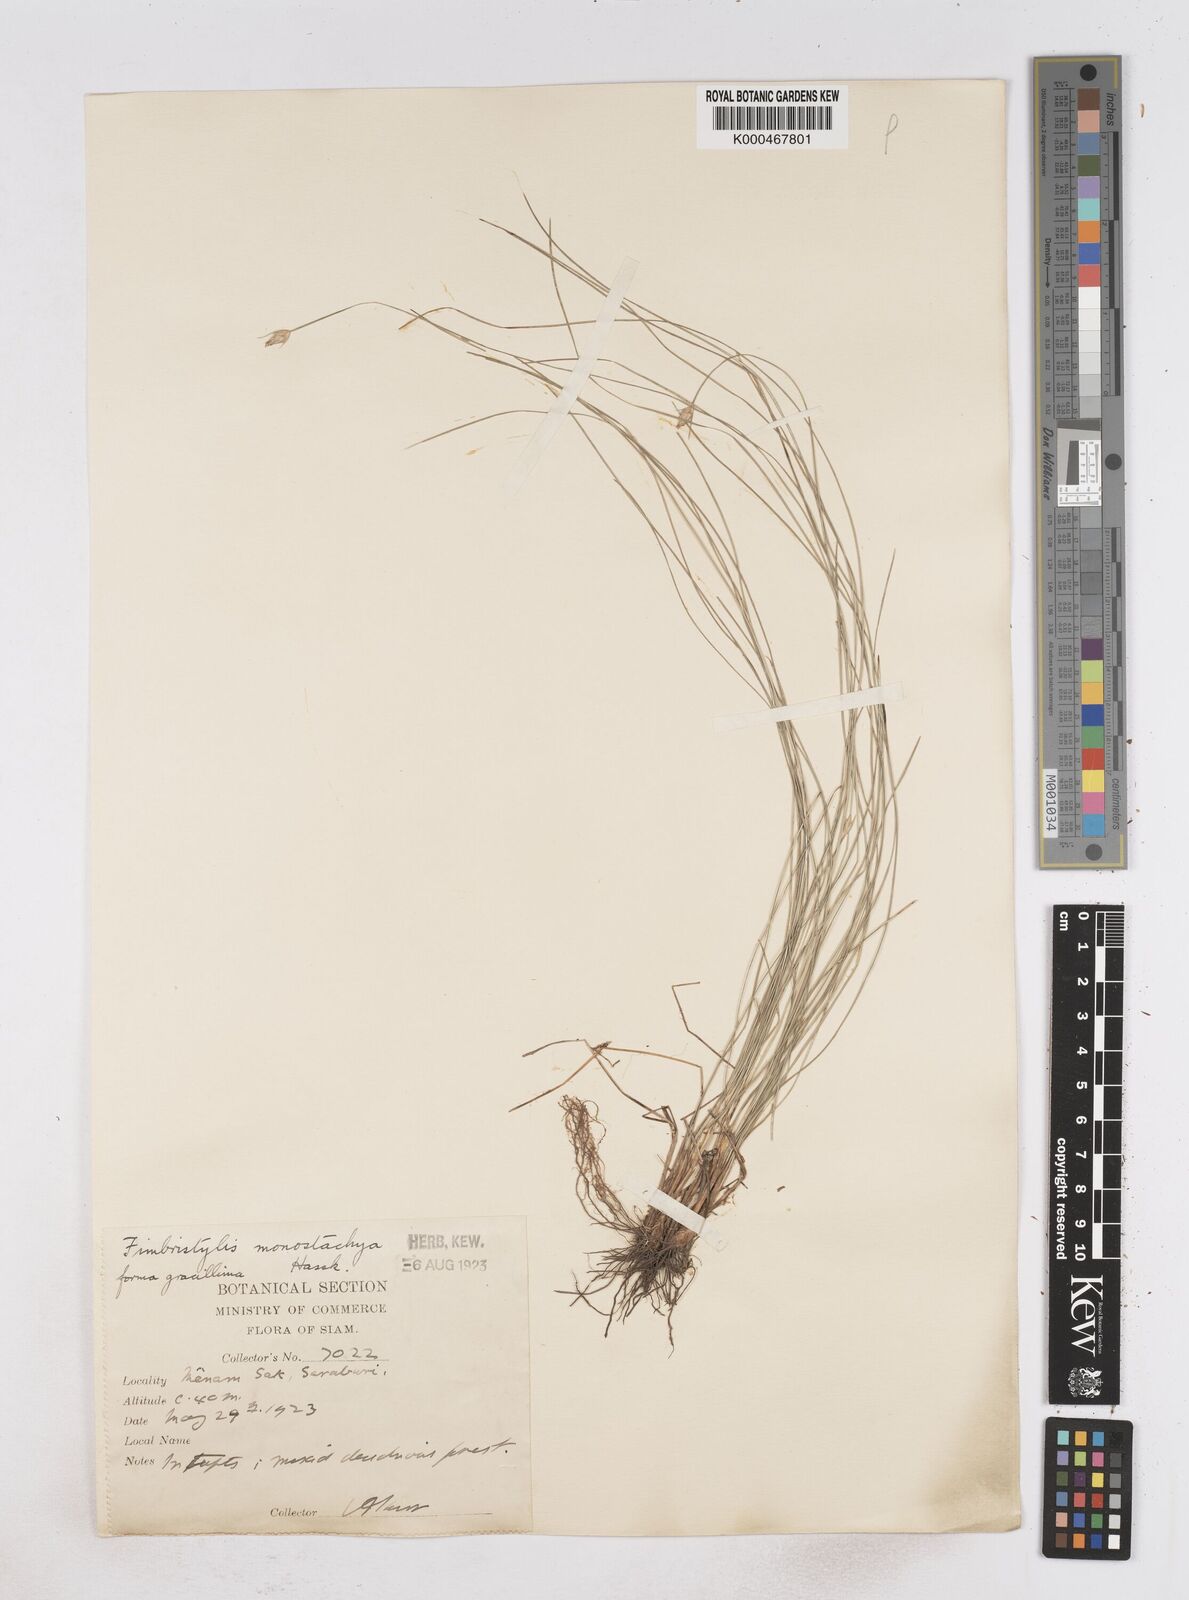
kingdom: Plantae
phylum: Tracheophyta
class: Liliopsida
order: Poales
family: Cyperaceae
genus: Abildgaardia
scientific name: Abildgaardia ovata
